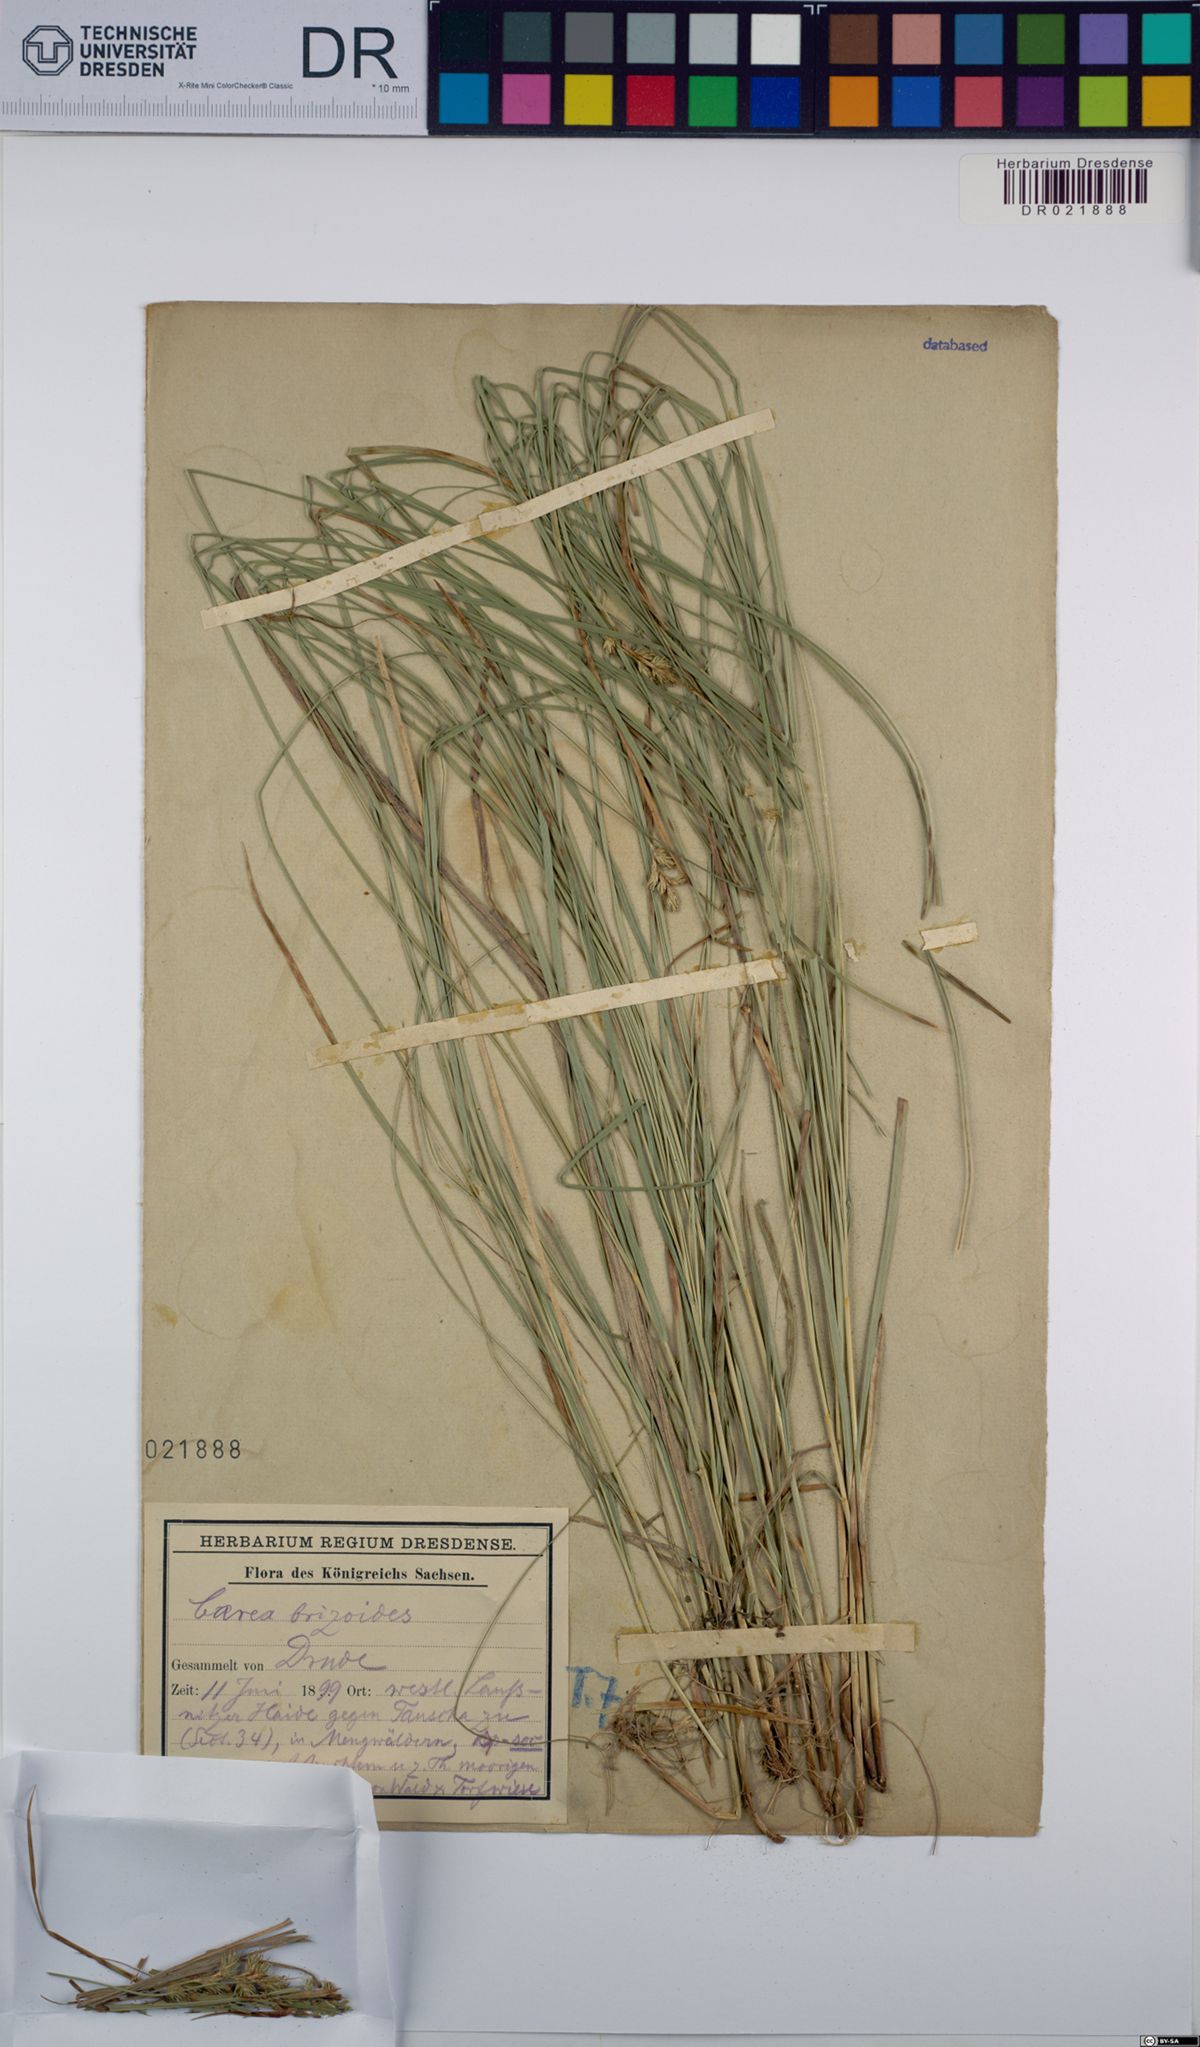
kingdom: Plantae
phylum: Tracheophyta
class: Liliopsida
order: Poales
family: Cyperaceae
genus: Carex
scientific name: Carex brizoides
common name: Quaking-grass sedge
